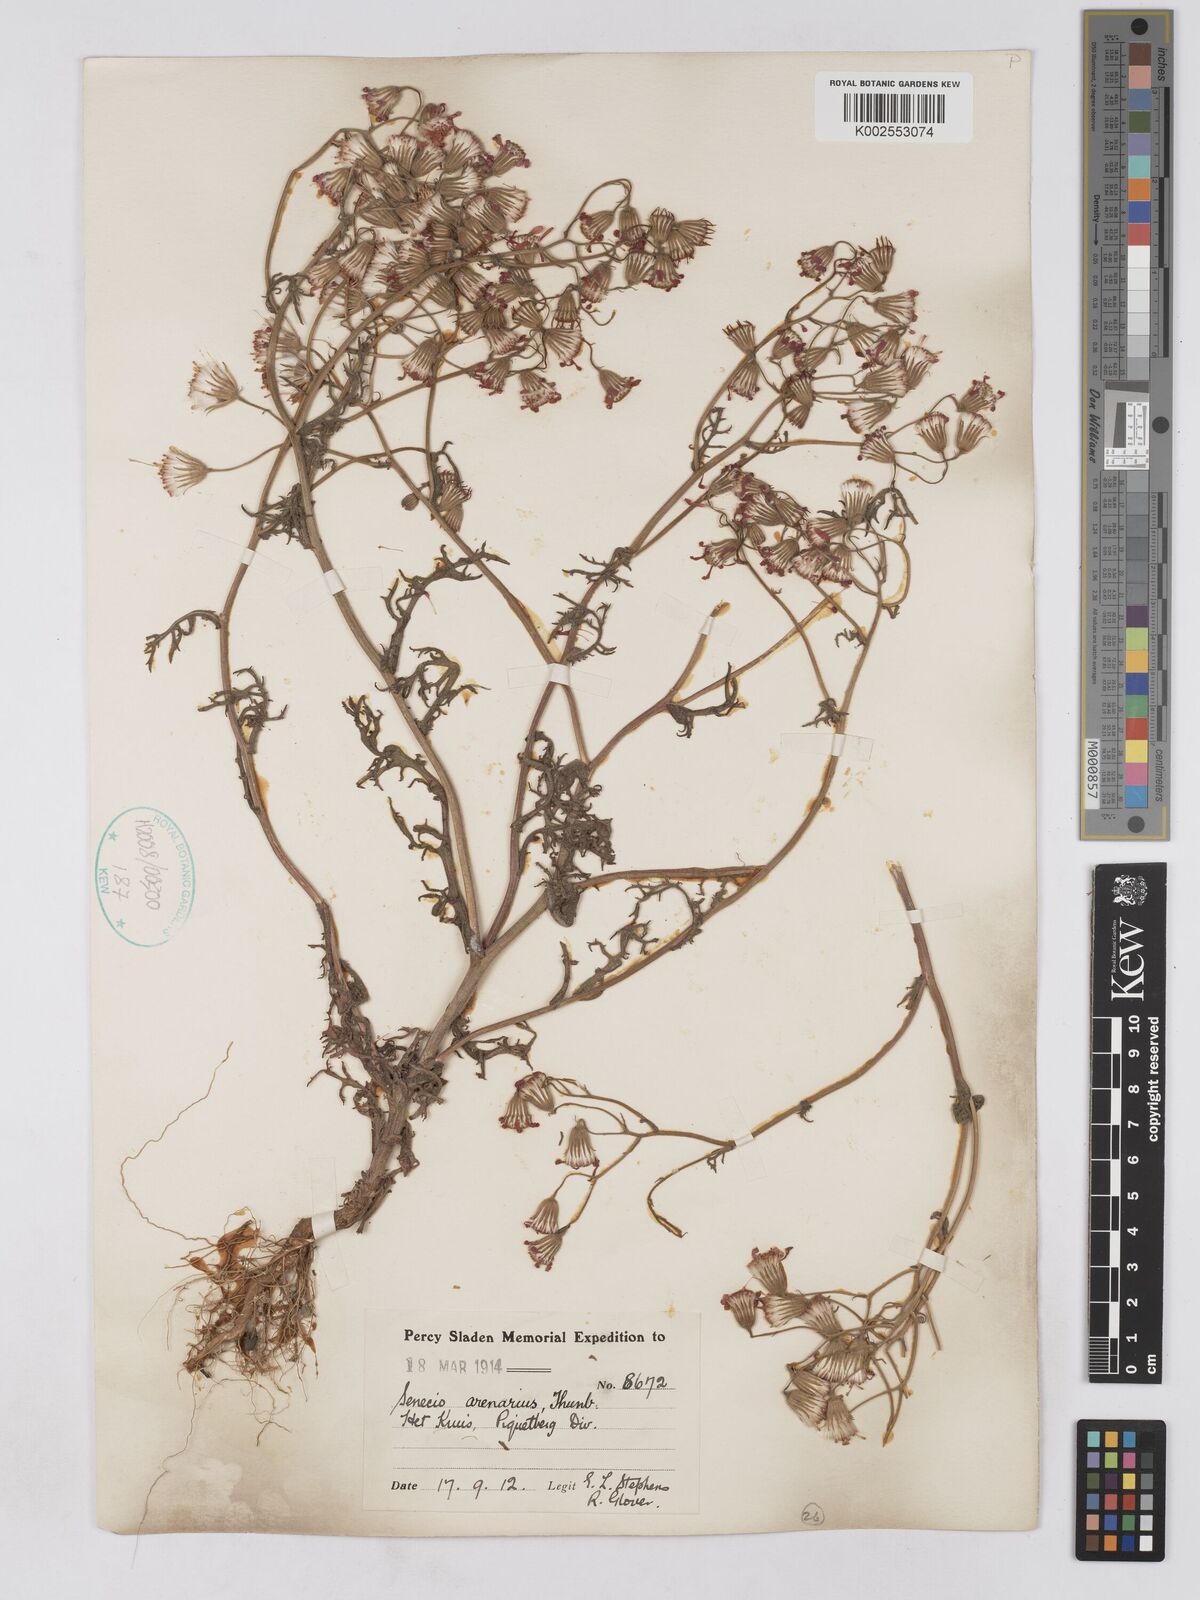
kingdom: Plantae
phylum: Tracheophyta
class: Magnoliopsida
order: Asterales
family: Asteraceae
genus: Senecio
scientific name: Senecio arenarius
